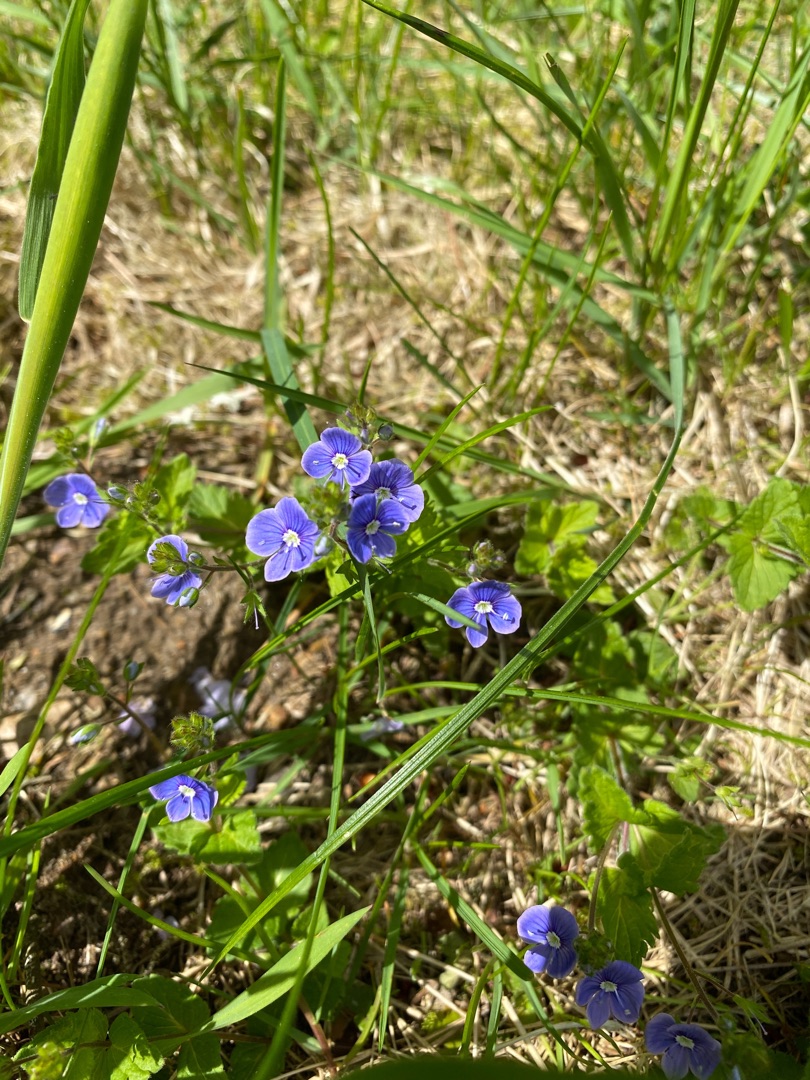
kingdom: Plantae
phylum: Tracheophyta
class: Magnoliopsida
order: Lamiales
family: Plantaginaceae
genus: Veronica
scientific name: Veronica chamaedrys
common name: Tveskægget ærenpris
